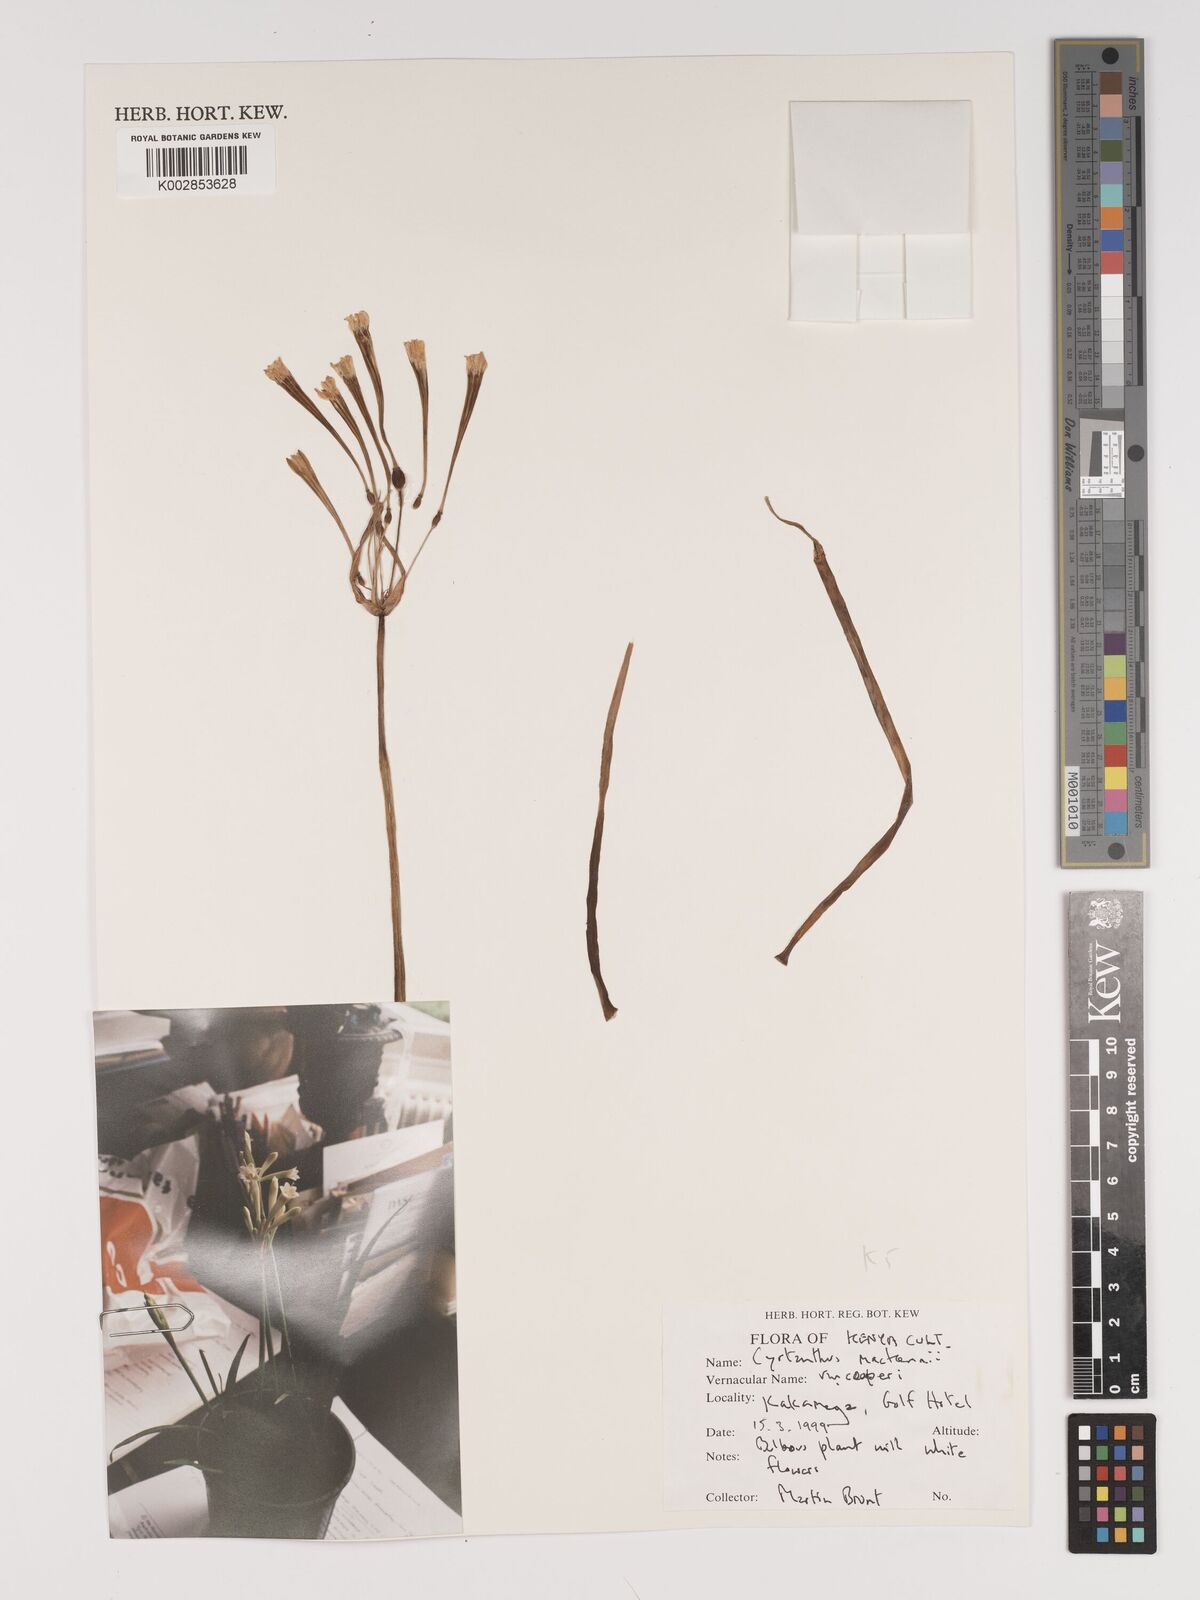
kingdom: Plantae
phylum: Tracheophyta
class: Liliopsida
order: Asparagales
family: Amaryllidaceae
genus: Cyrtanthus
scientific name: Cyrtanthus mackenii
